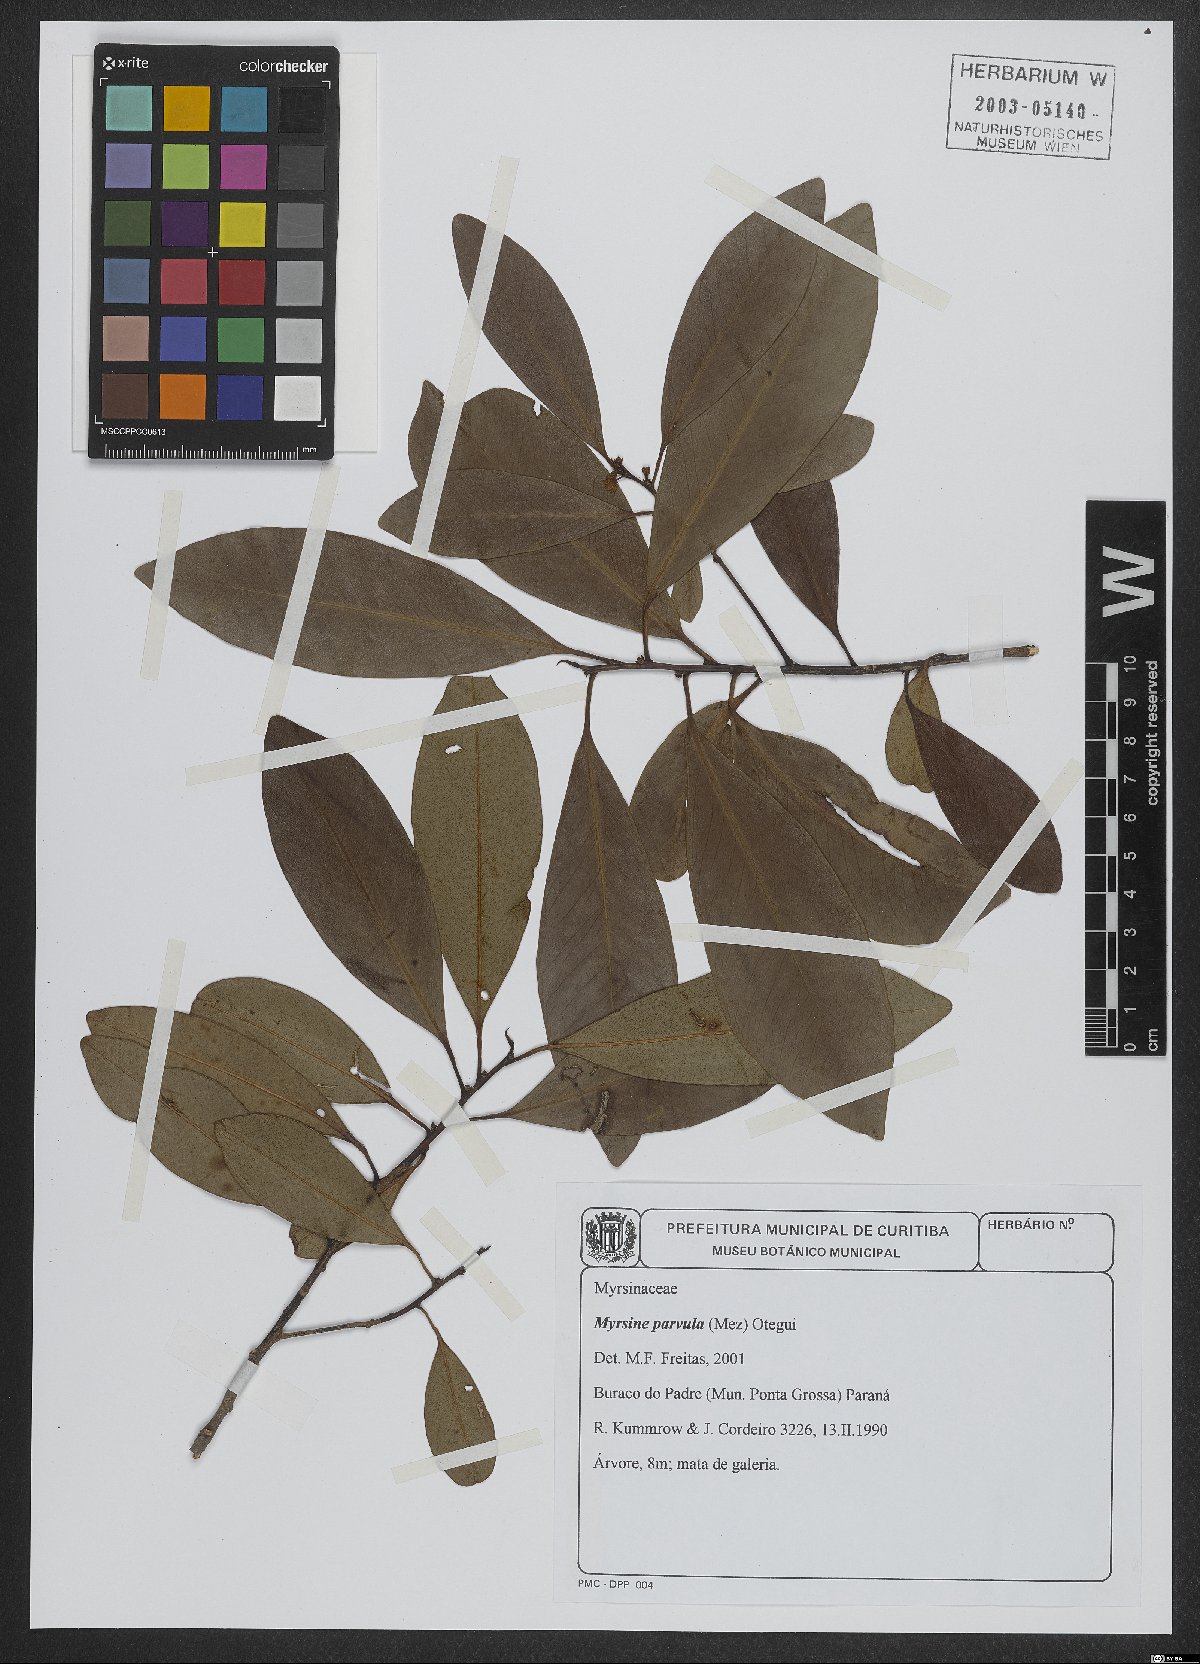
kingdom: Plantae
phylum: Tracheophyta
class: Magnoliopsida
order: Ericales
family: Primulaceae
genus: Myrsine
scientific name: Myrsine lorentziana
